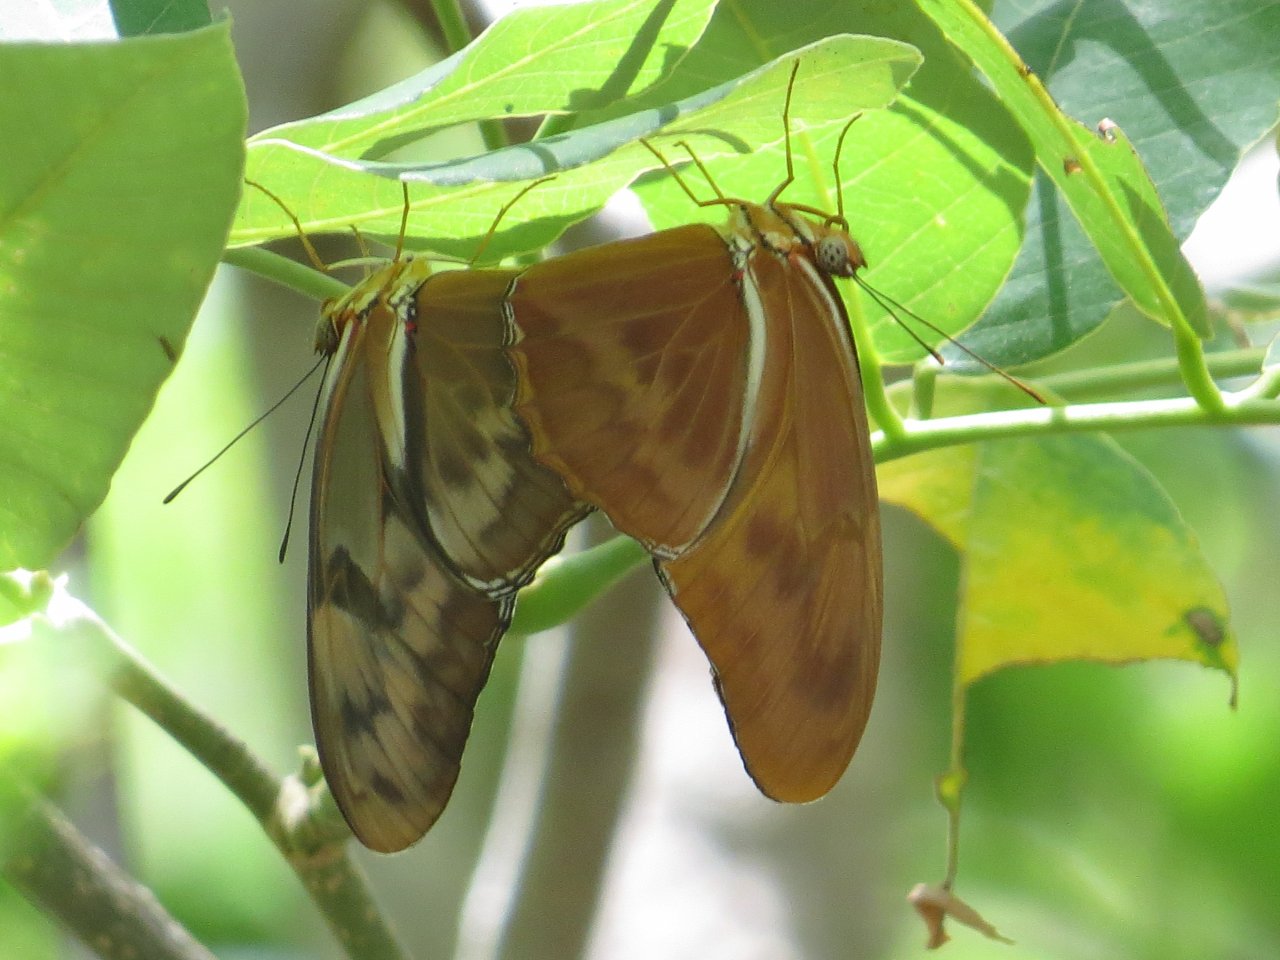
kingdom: Animalia
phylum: Arthropoda
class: Insecta
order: Lepidoptera
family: Nymphalidae
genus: Dryas
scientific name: Dryas iulia
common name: Julia
